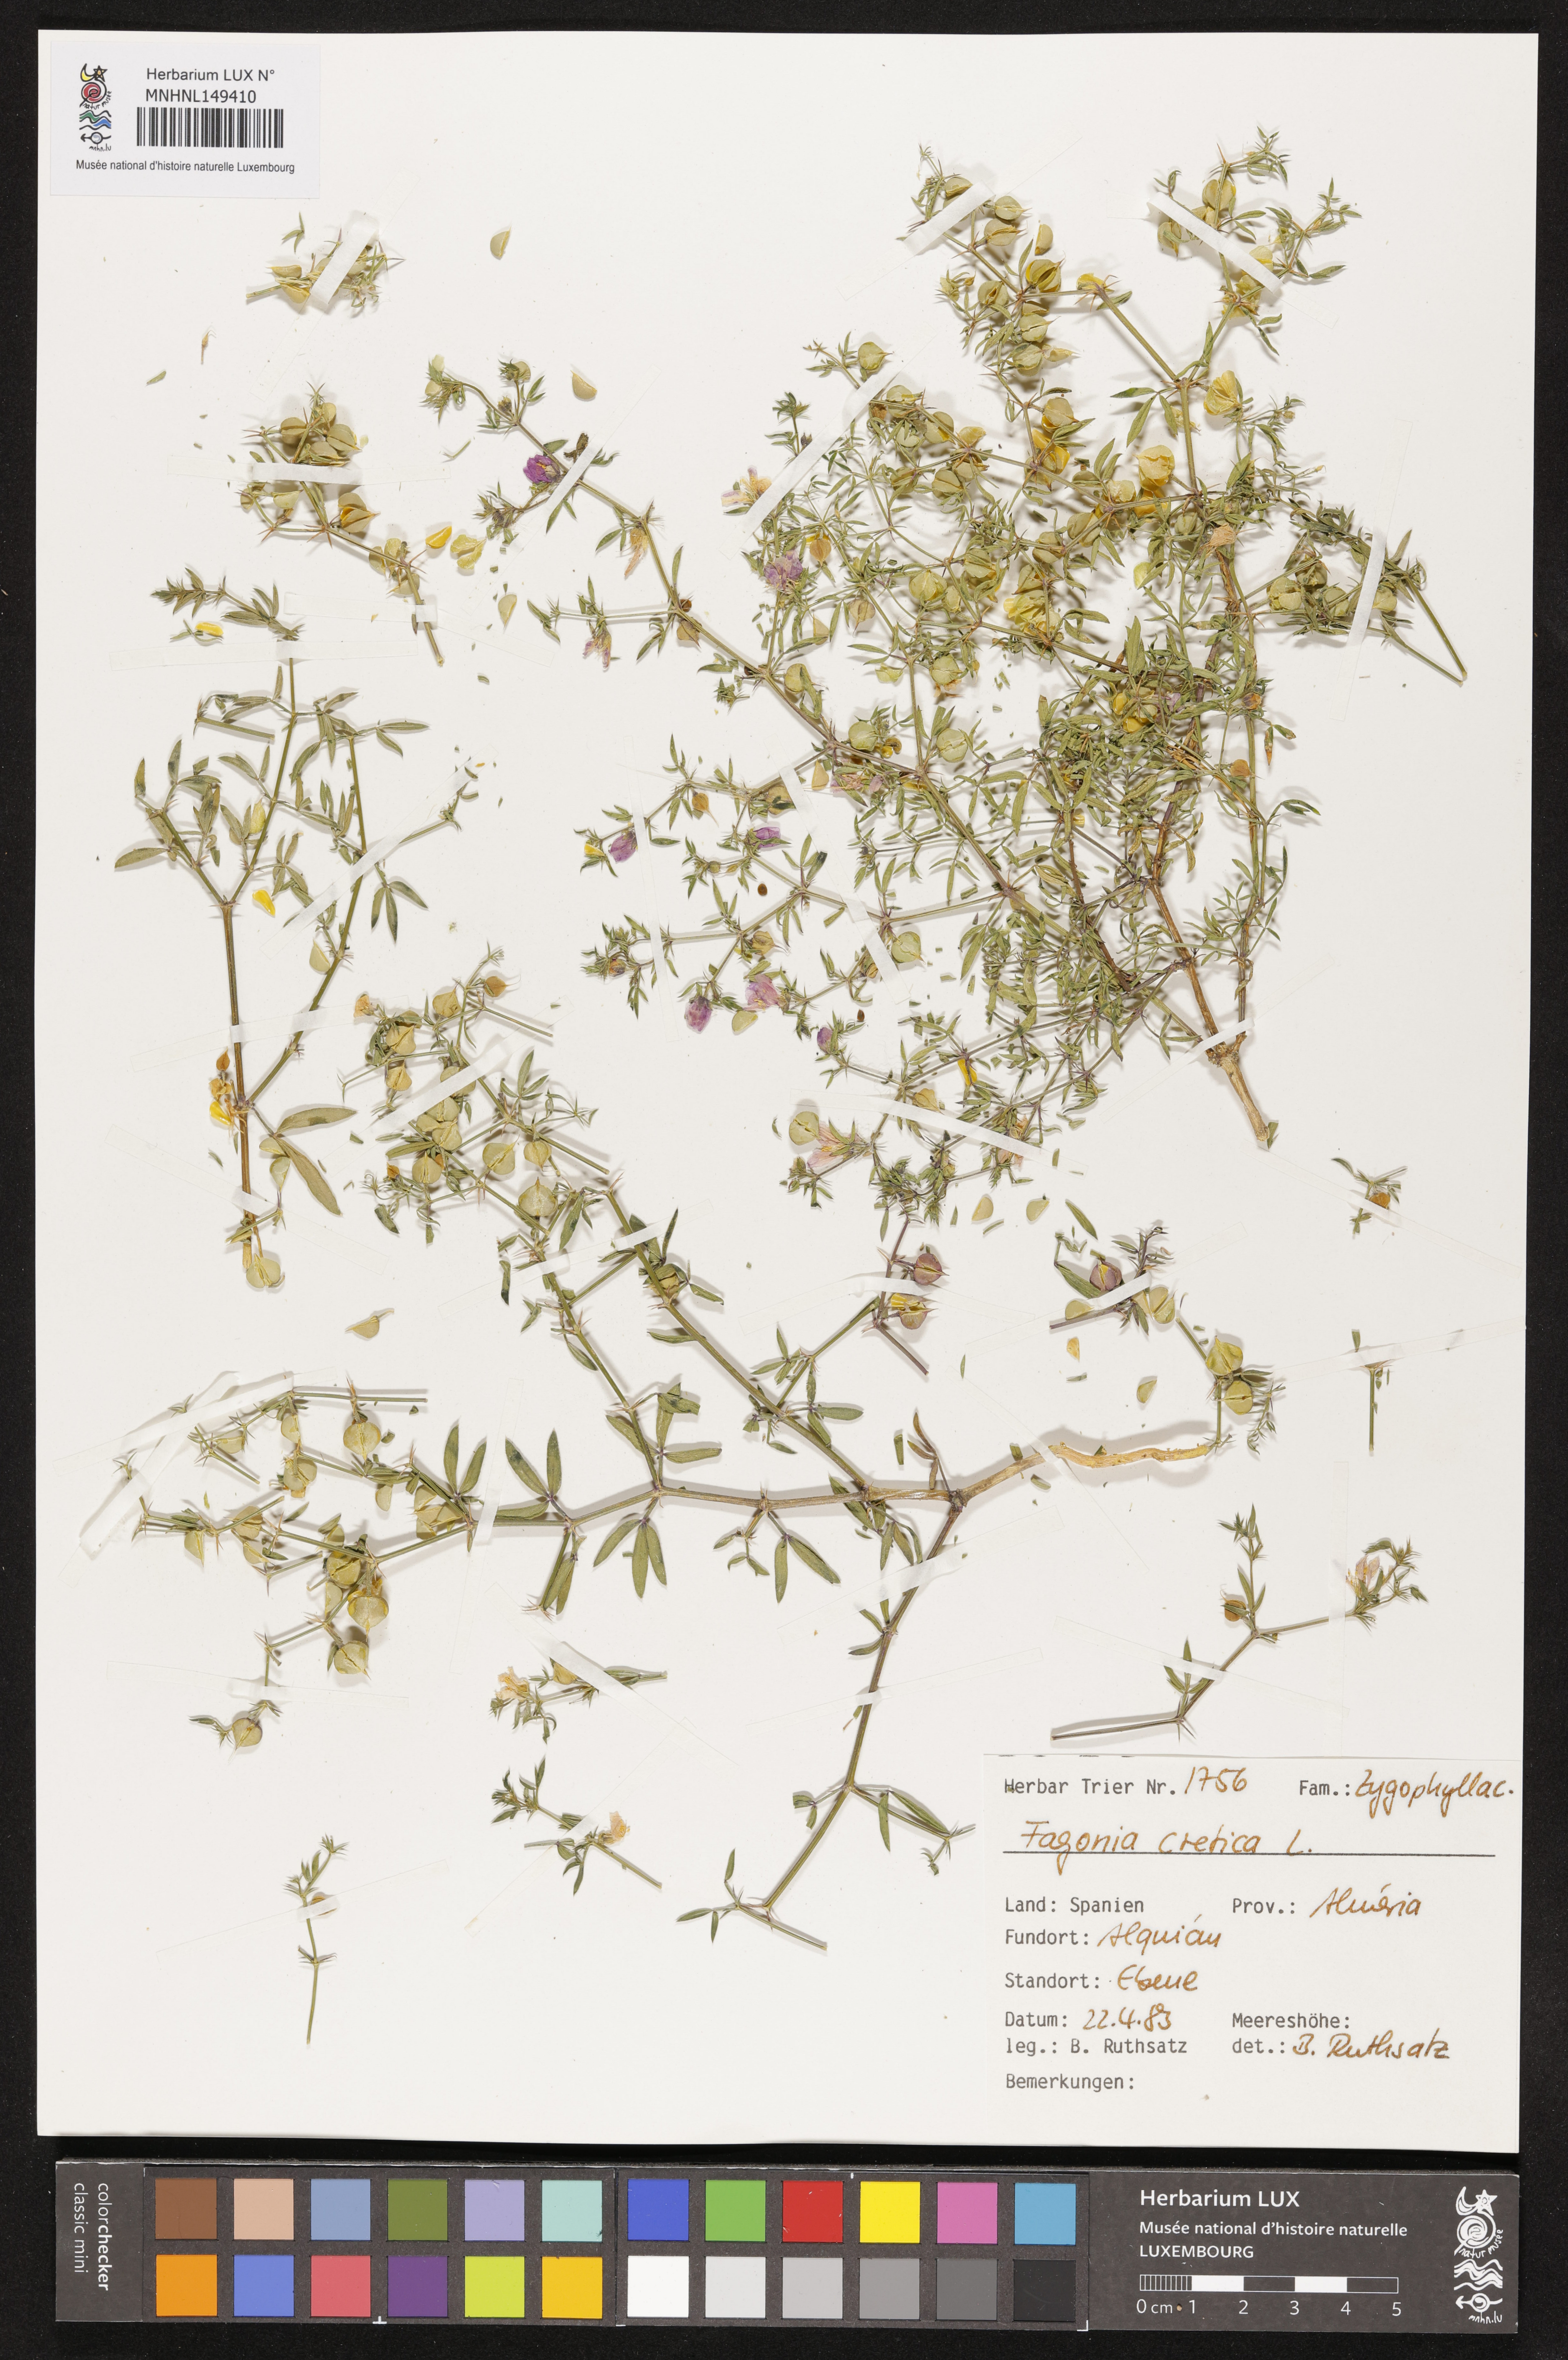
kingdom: Plantae
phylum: Tracheophyta
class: Magnoliopsida
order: Zygophyllales
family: Zygophyllaceae
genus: Fagonia
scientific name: Fagonia cretica
